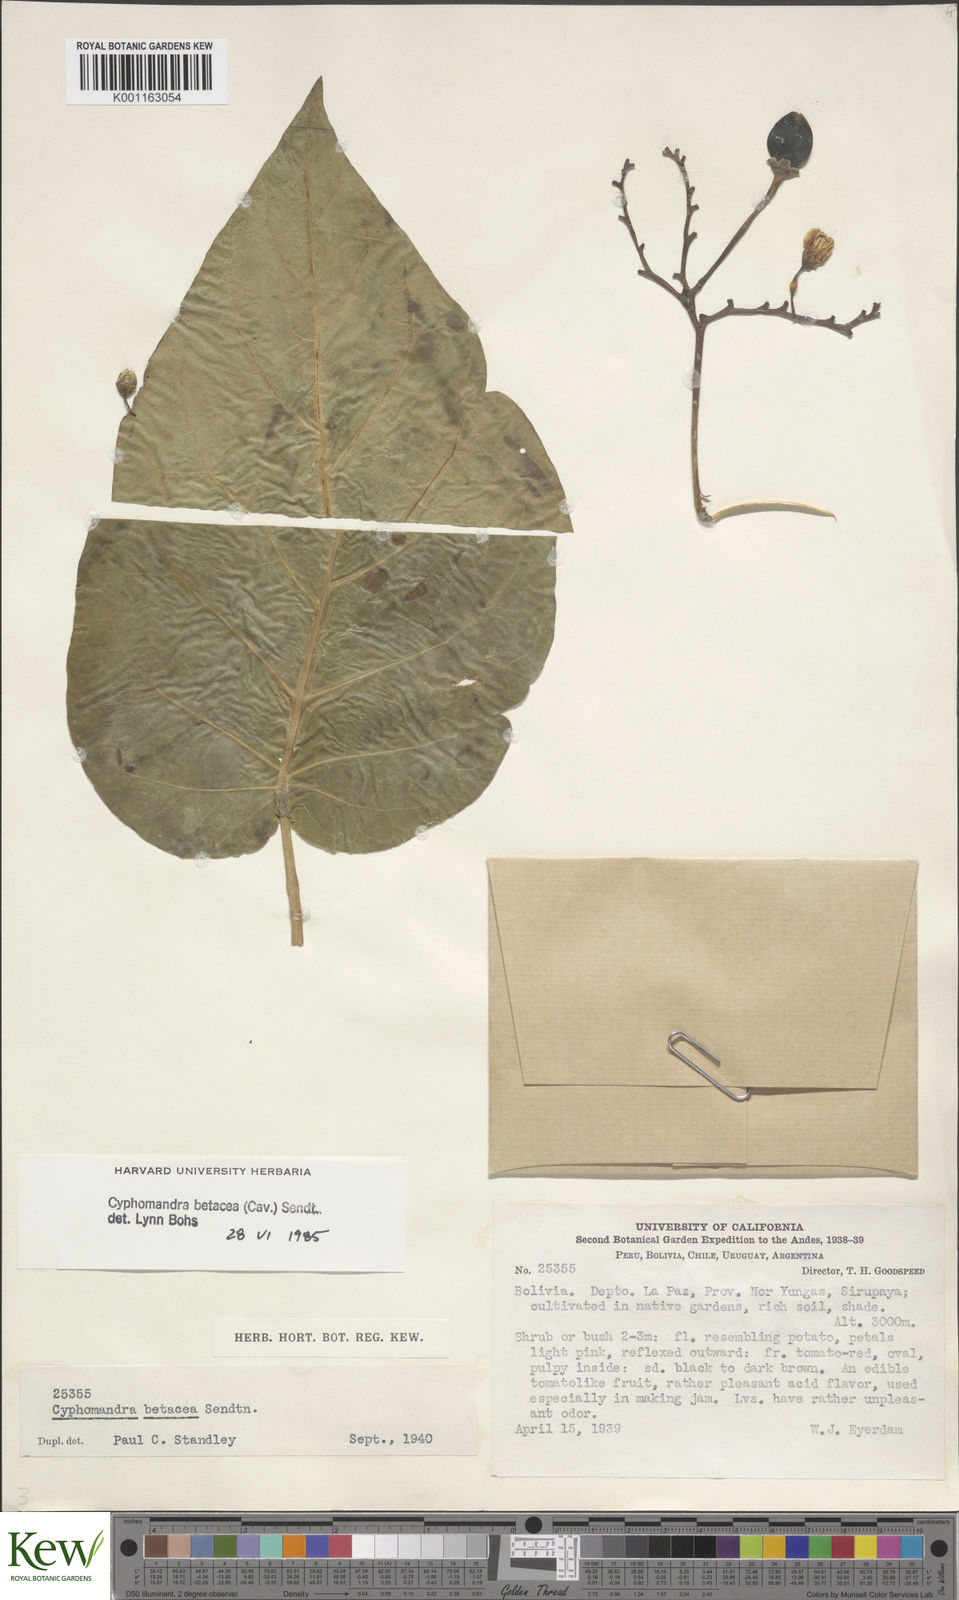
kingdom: Plantae
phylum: Tracheophyta
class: Magnoliopsida
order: Solanales
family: Solanaceae
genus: Solanum
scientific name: Solanum betaceum
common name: Tamarillo
